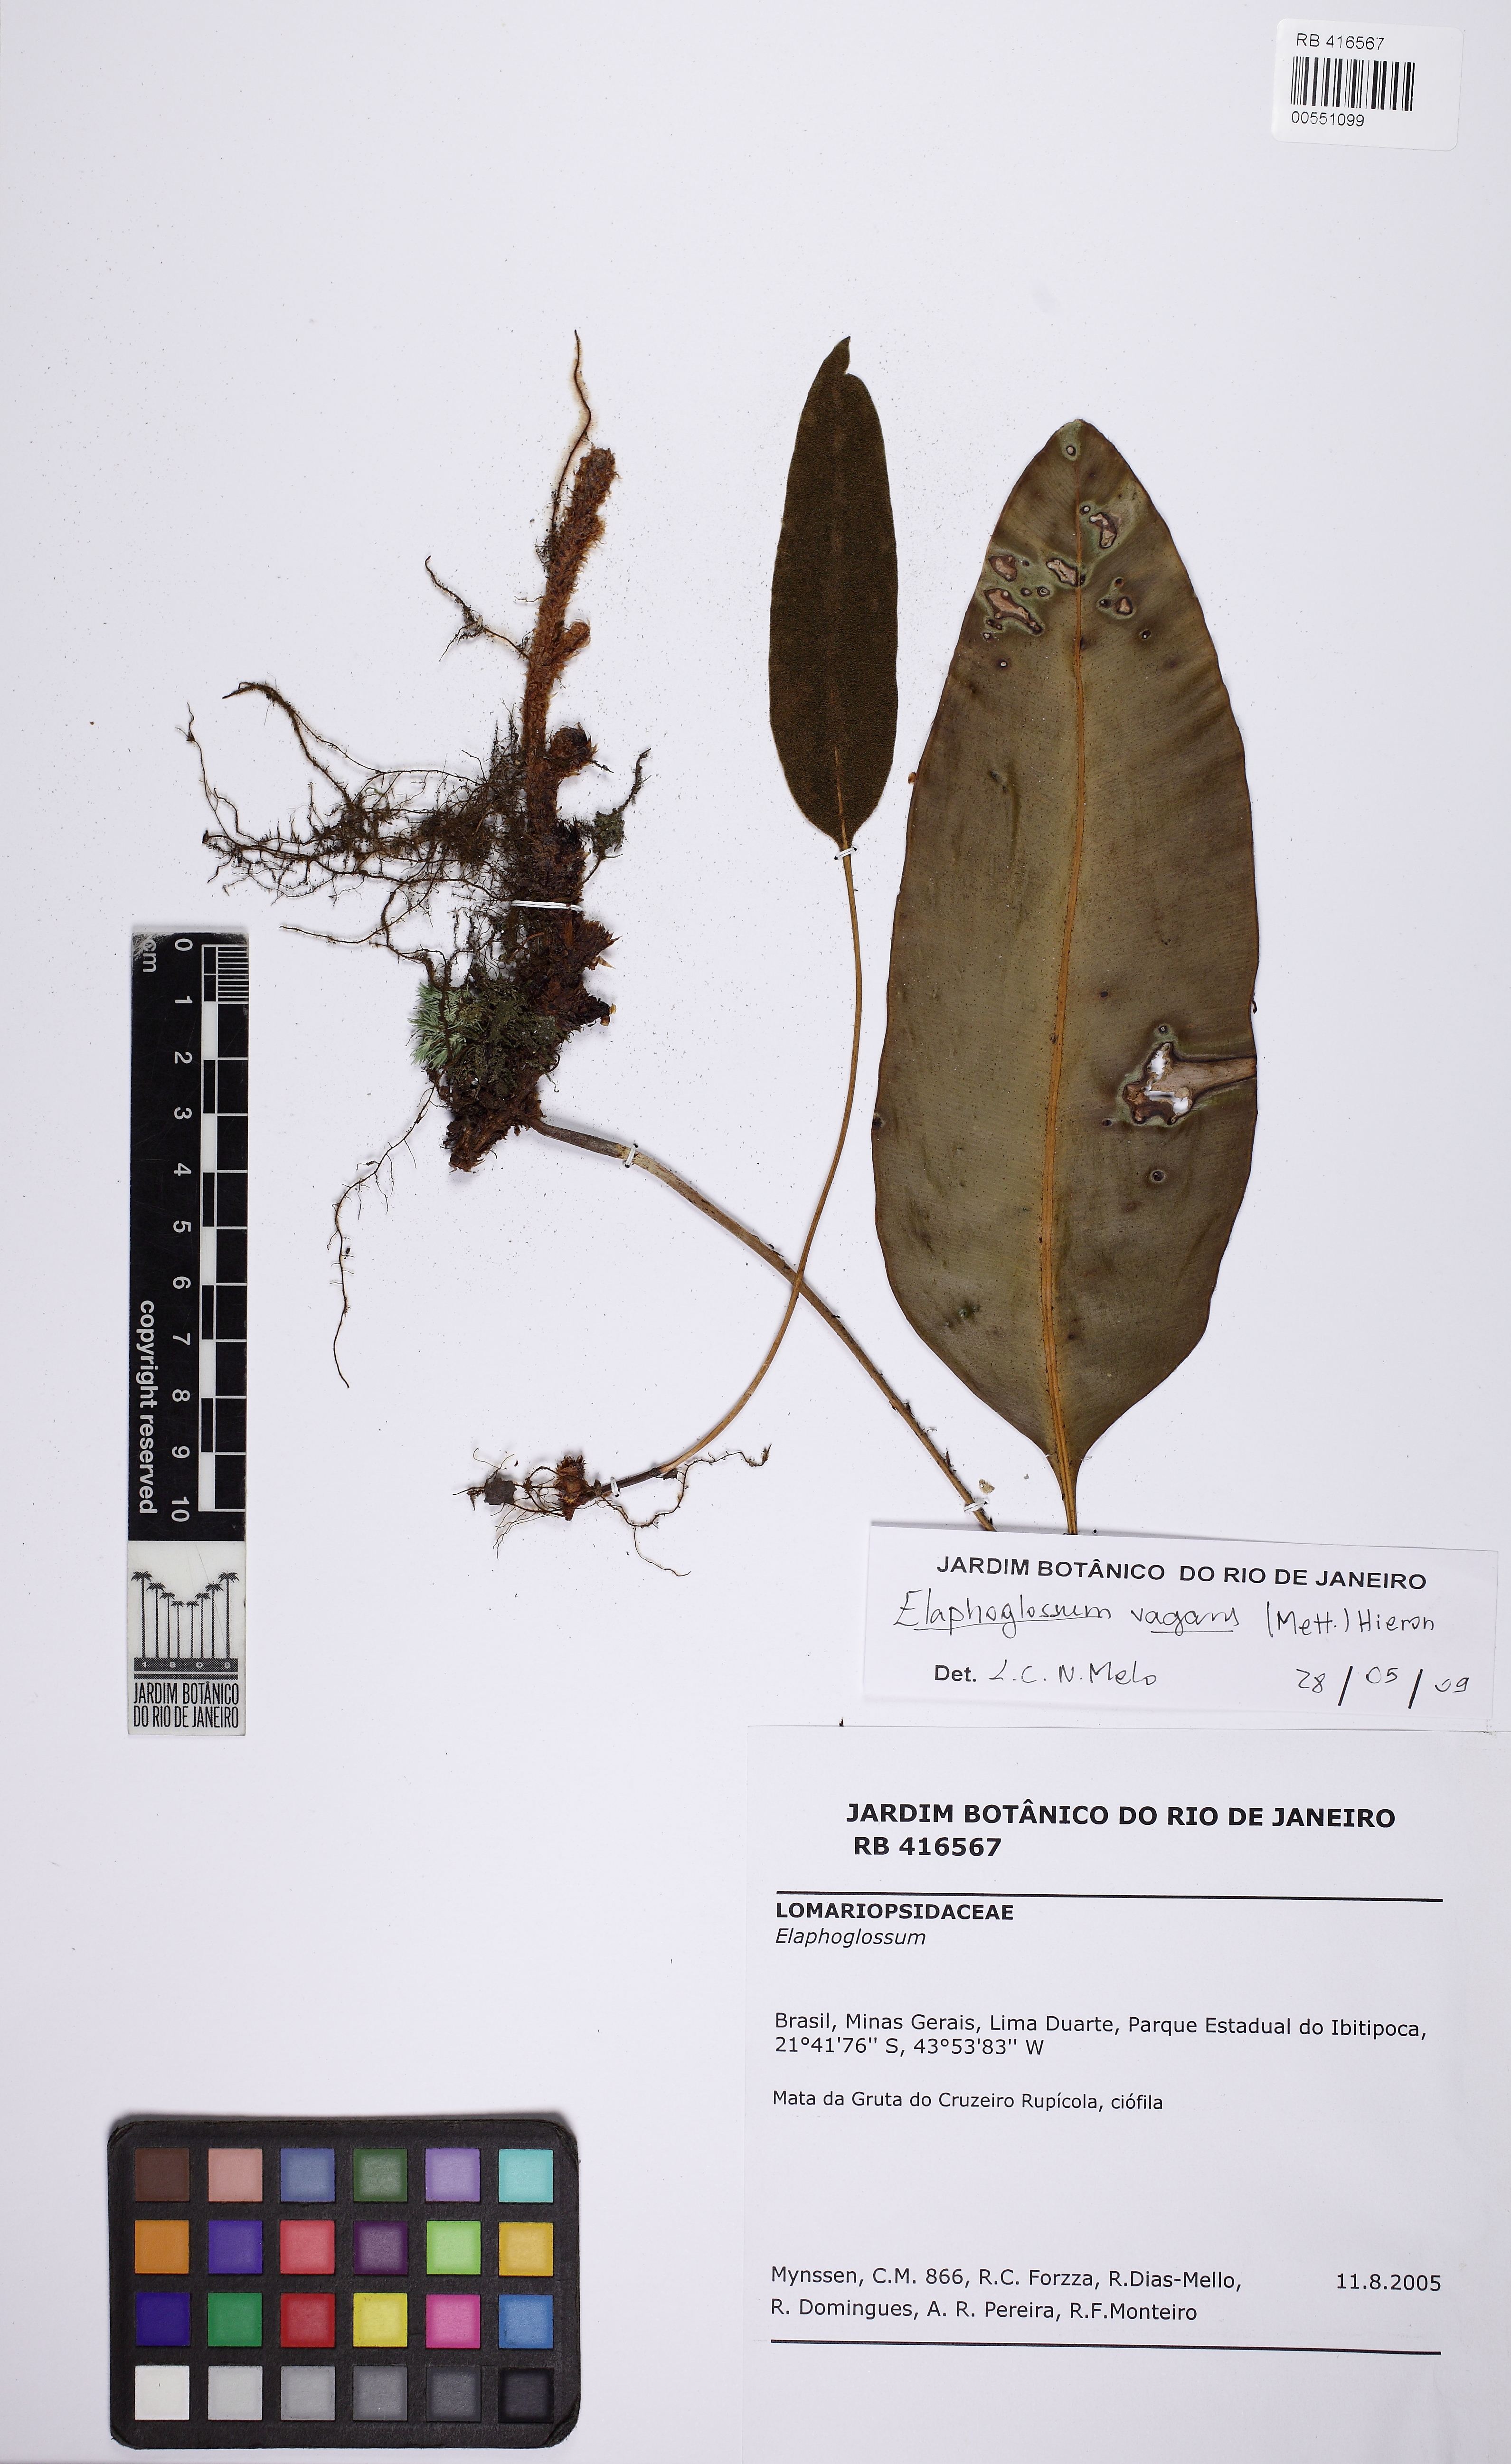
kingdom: Plantae
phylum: Tracheophyta
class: Polypodiopsida
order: Polypodiales
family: Dryopteridaceae
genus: Elaphoglossum
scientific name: Elaphoglossum vagans
